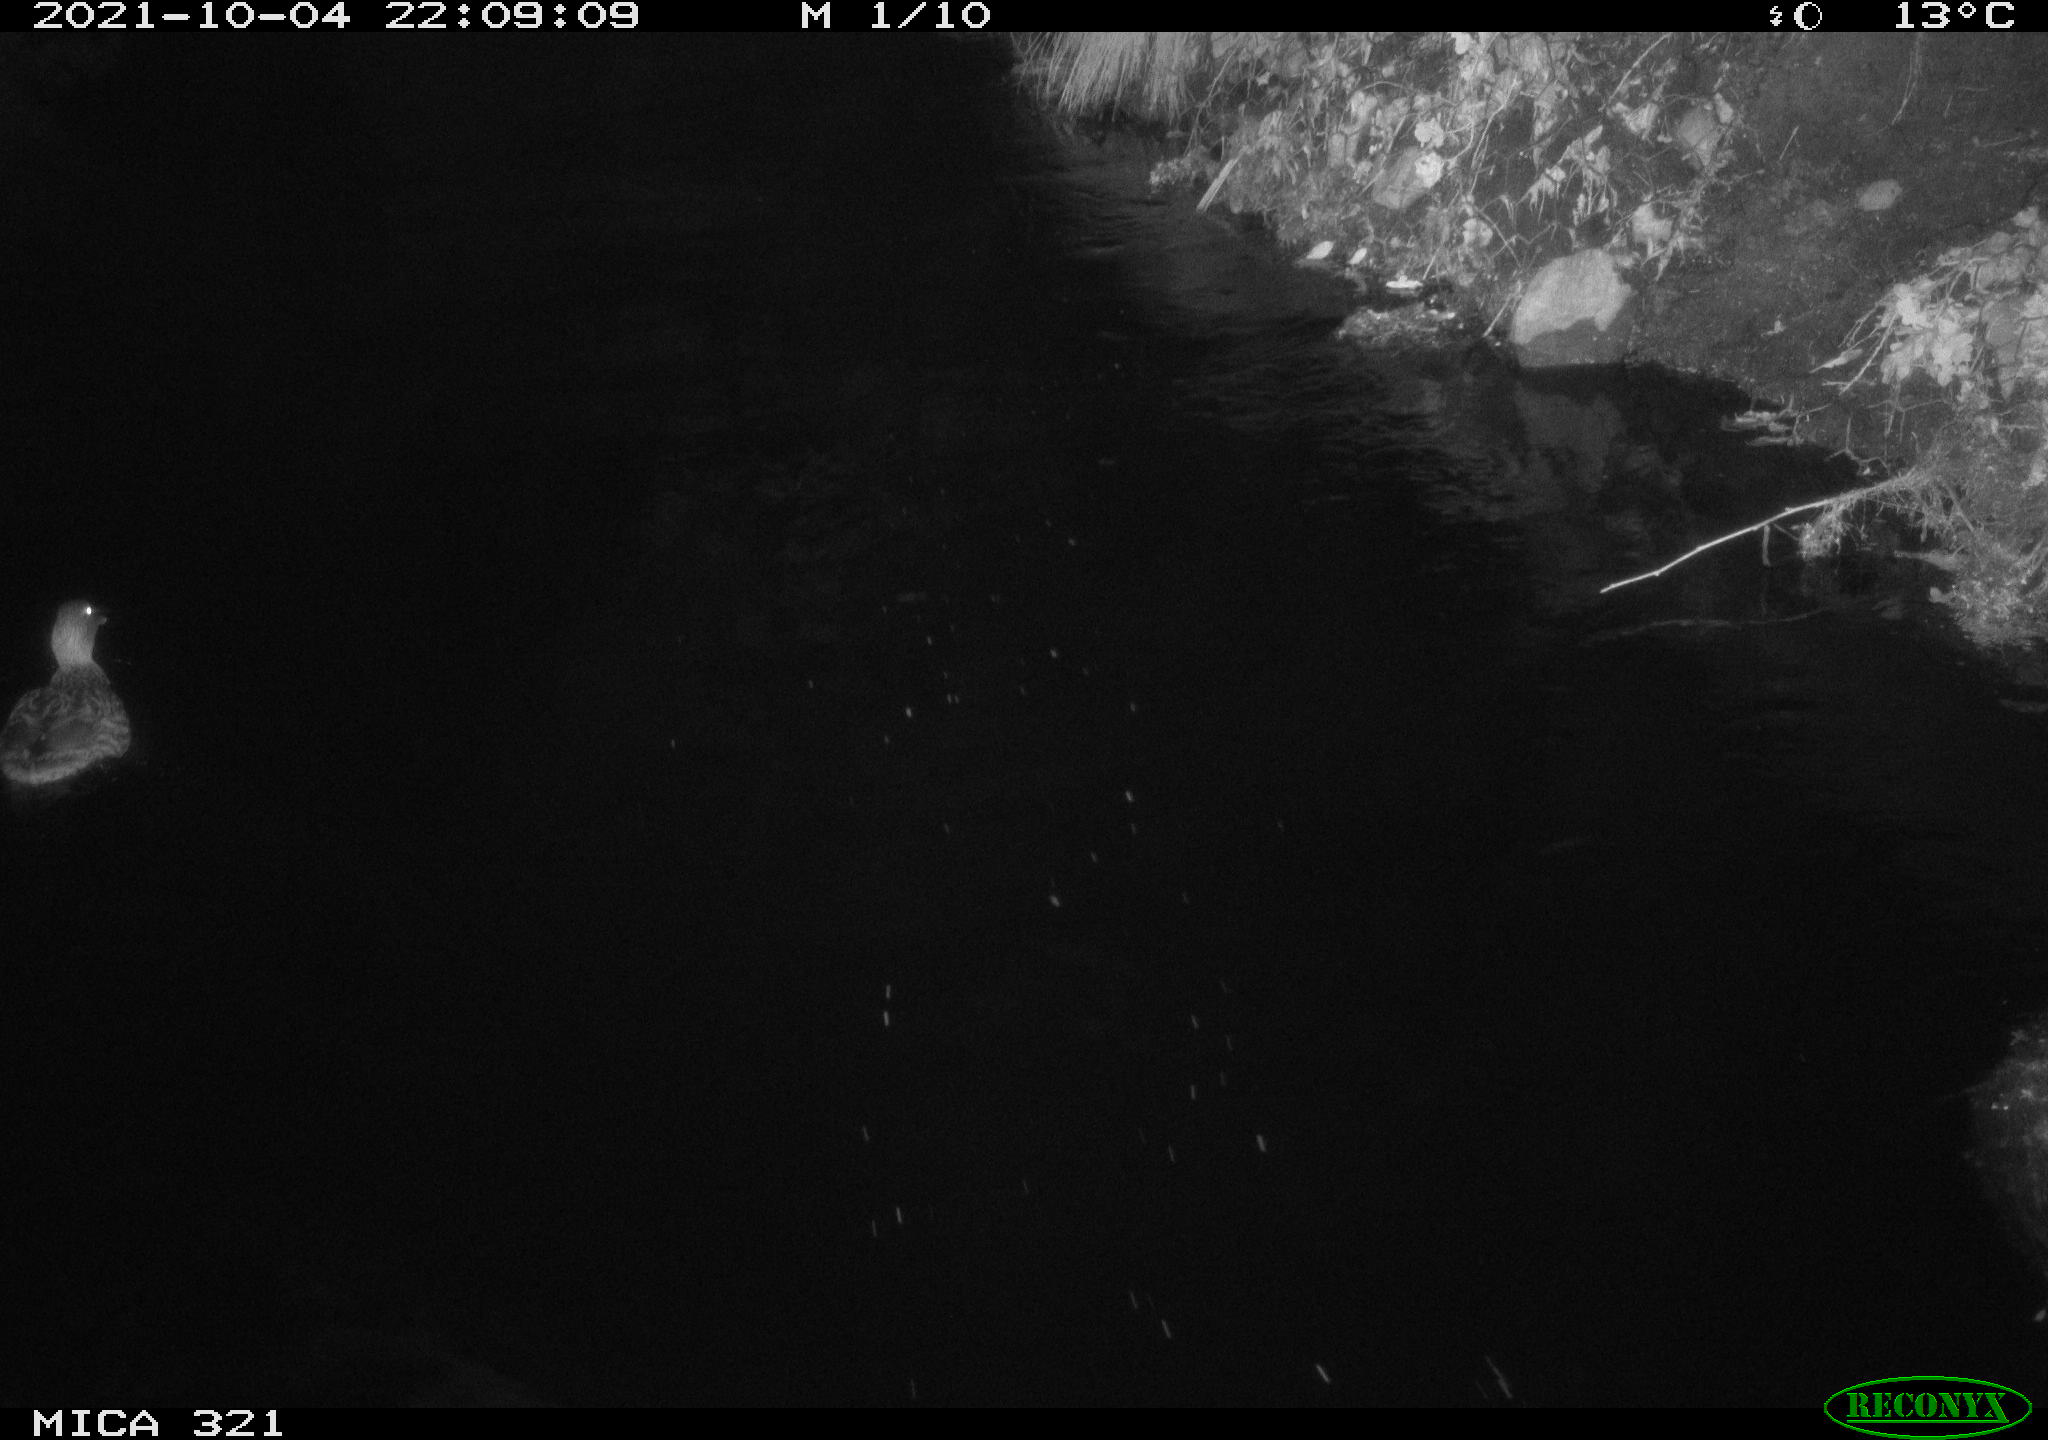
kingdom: Animalia
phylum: Chordata
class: Aves
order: Anseriformes
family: Anatidae
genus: Anas
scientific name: Anas platyrhynchos
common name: Mallard
